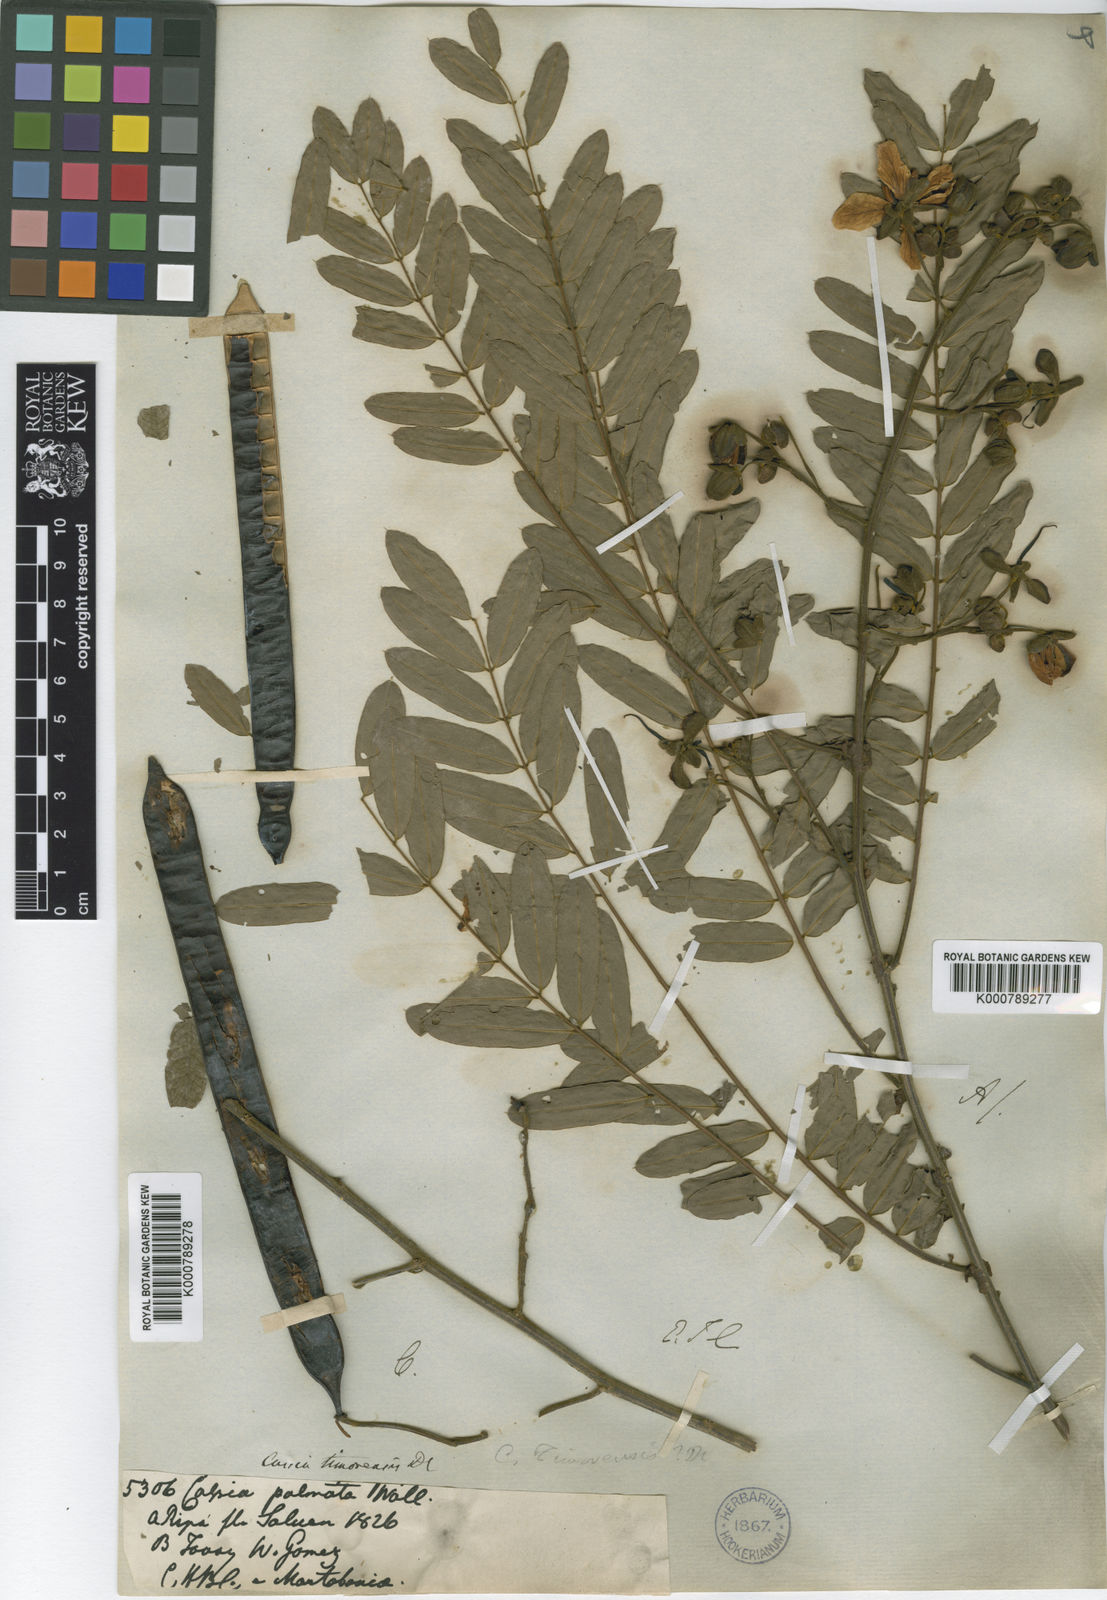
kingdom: Plantae
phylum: Tracheophyta
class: Magnoliopsida
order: Fabales
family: Fabaceae
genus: Senna
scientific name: Senna timoriensis
